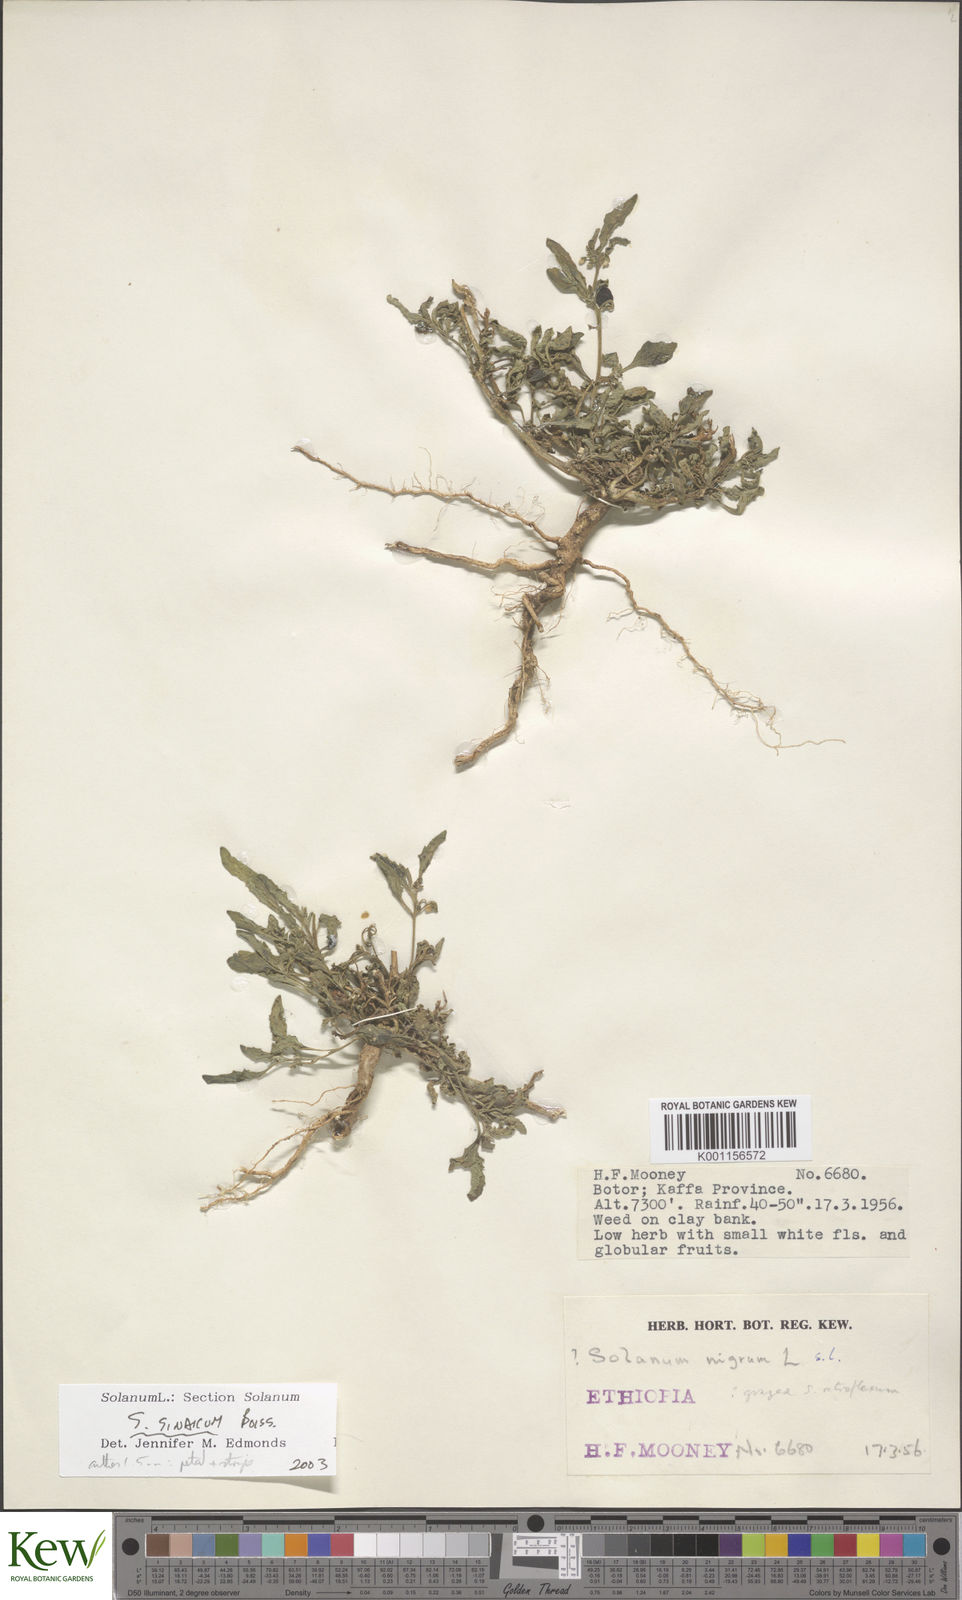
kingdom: Plantae
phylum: Tracheophyta
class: Magnoliopsida
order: Solanales
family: Solanaceae
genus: Solanum
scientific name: Solanum villosum
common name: Red nightshade
